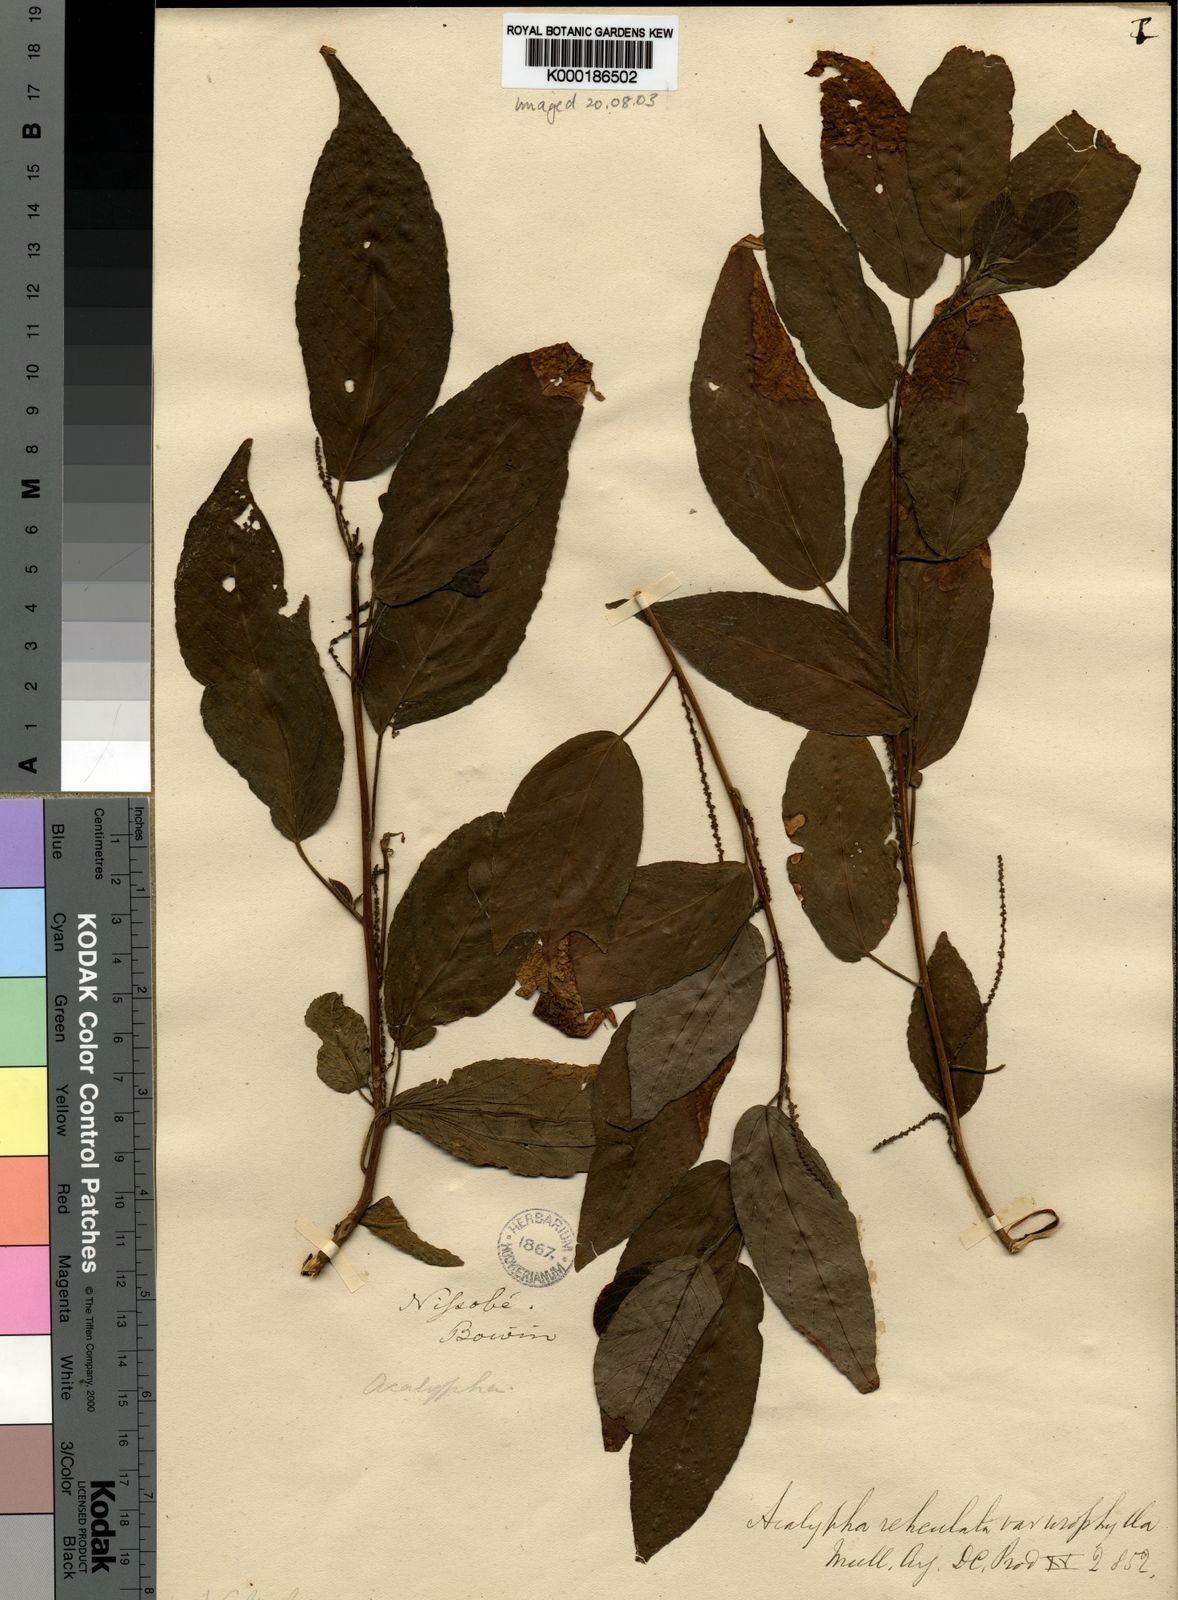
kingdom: Plantae
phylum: Tracheophyta
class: Magnoliopsida
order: Malpighiales
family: Euphorbiaceae
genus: Acalypha
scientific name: Acalypha urophylla
